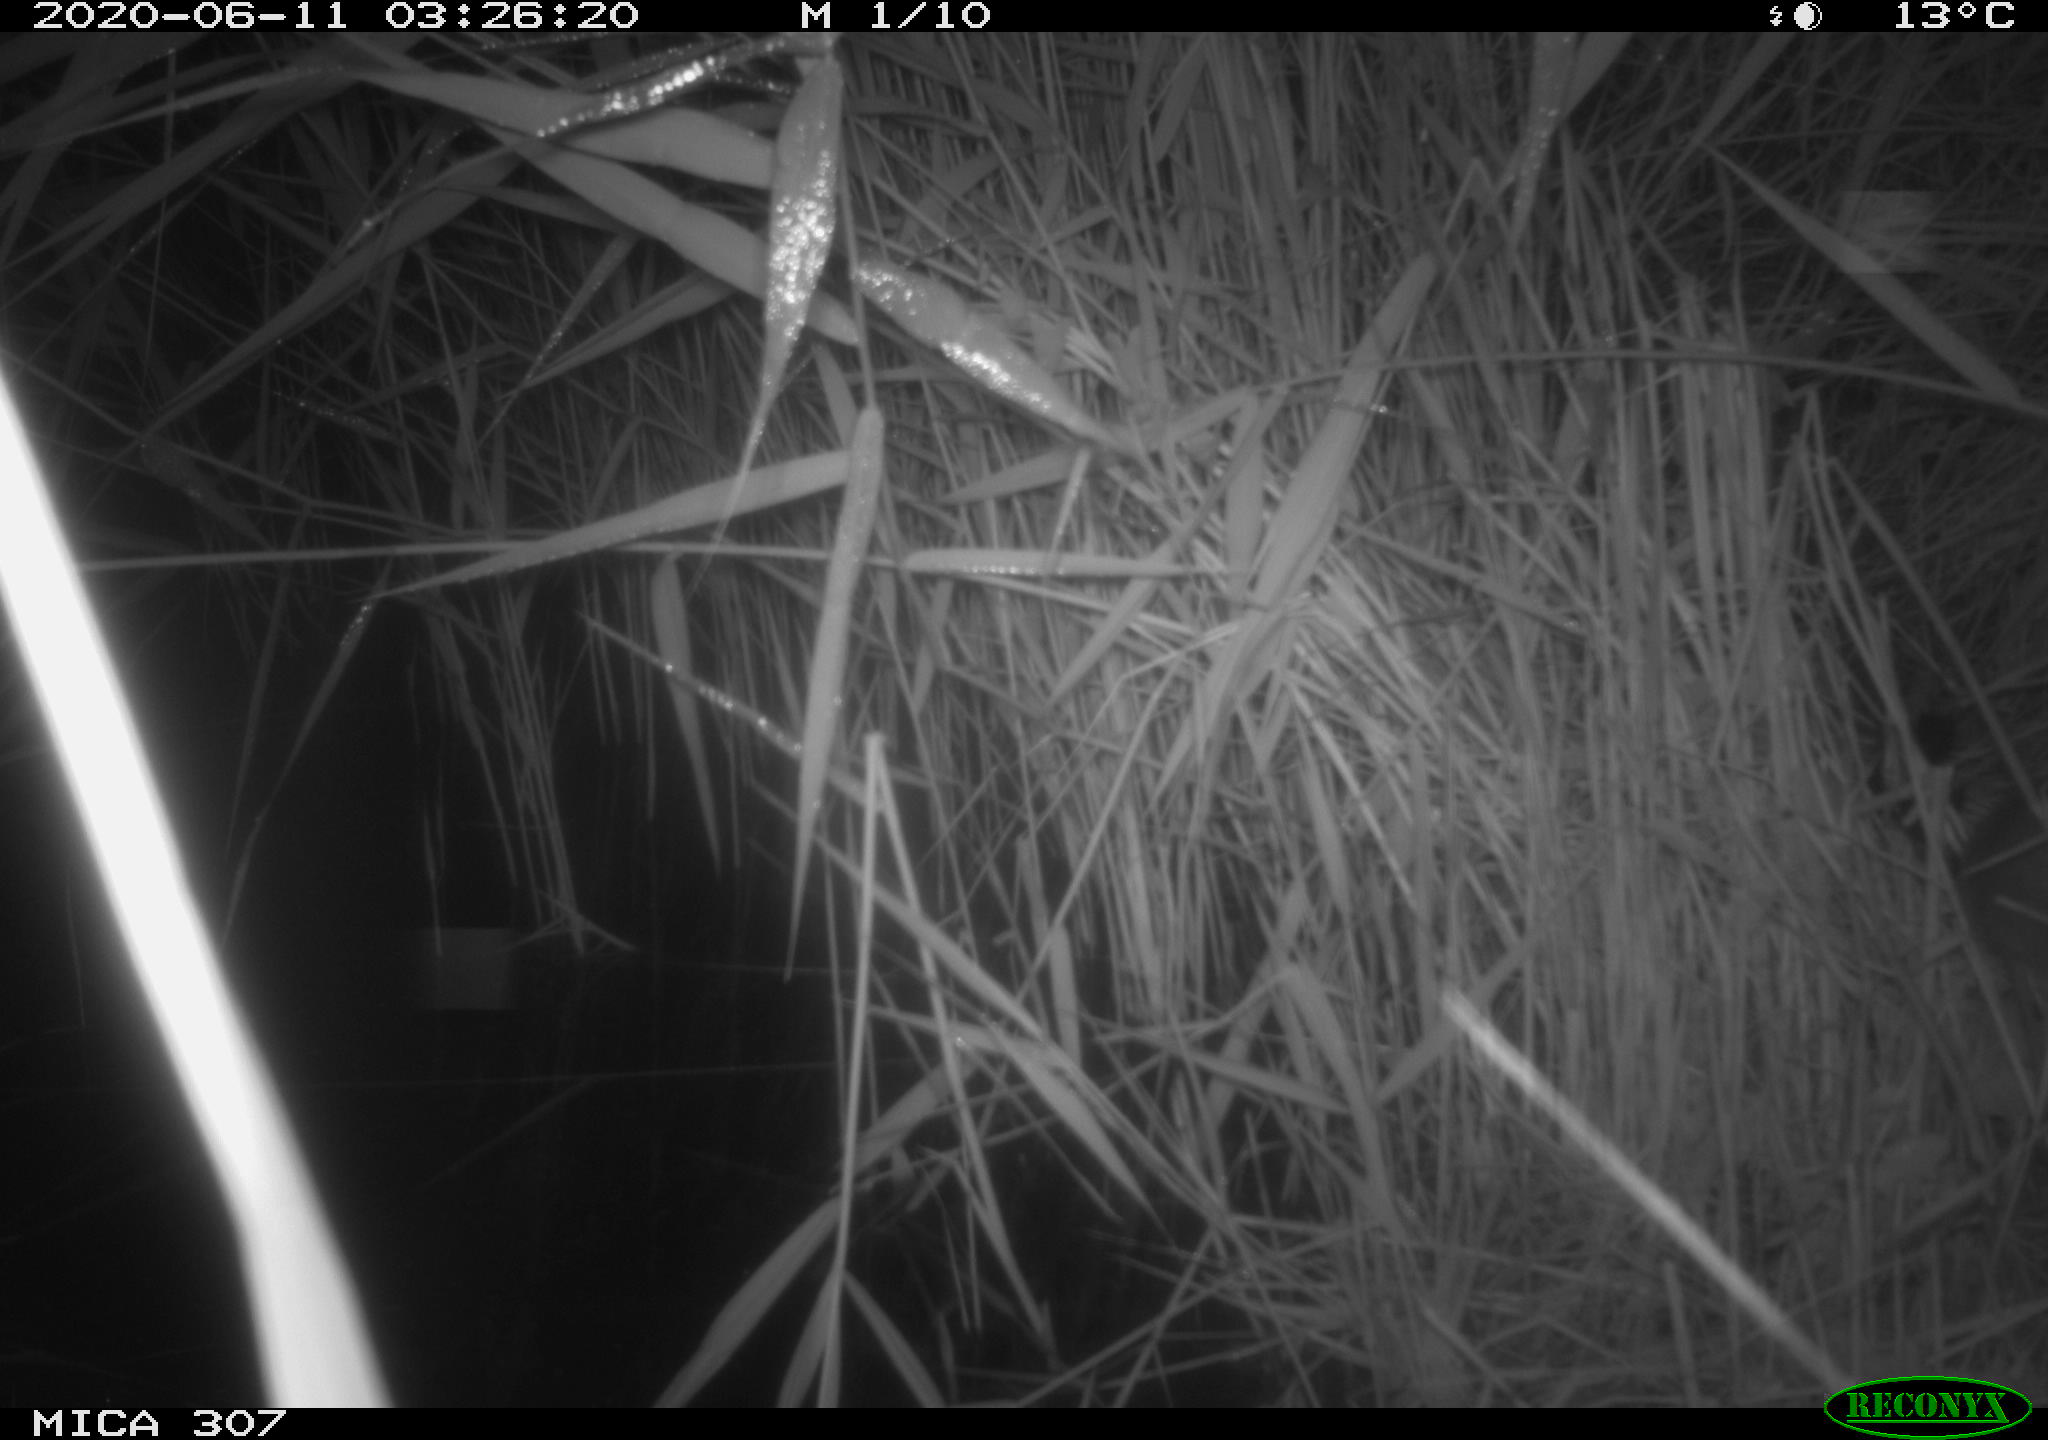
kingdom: Animalia
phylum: Chordata
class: Mammalia
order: Rodentia
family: Muridae
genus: Rattus
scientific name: Rattus norvegicus
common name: Brown rat
